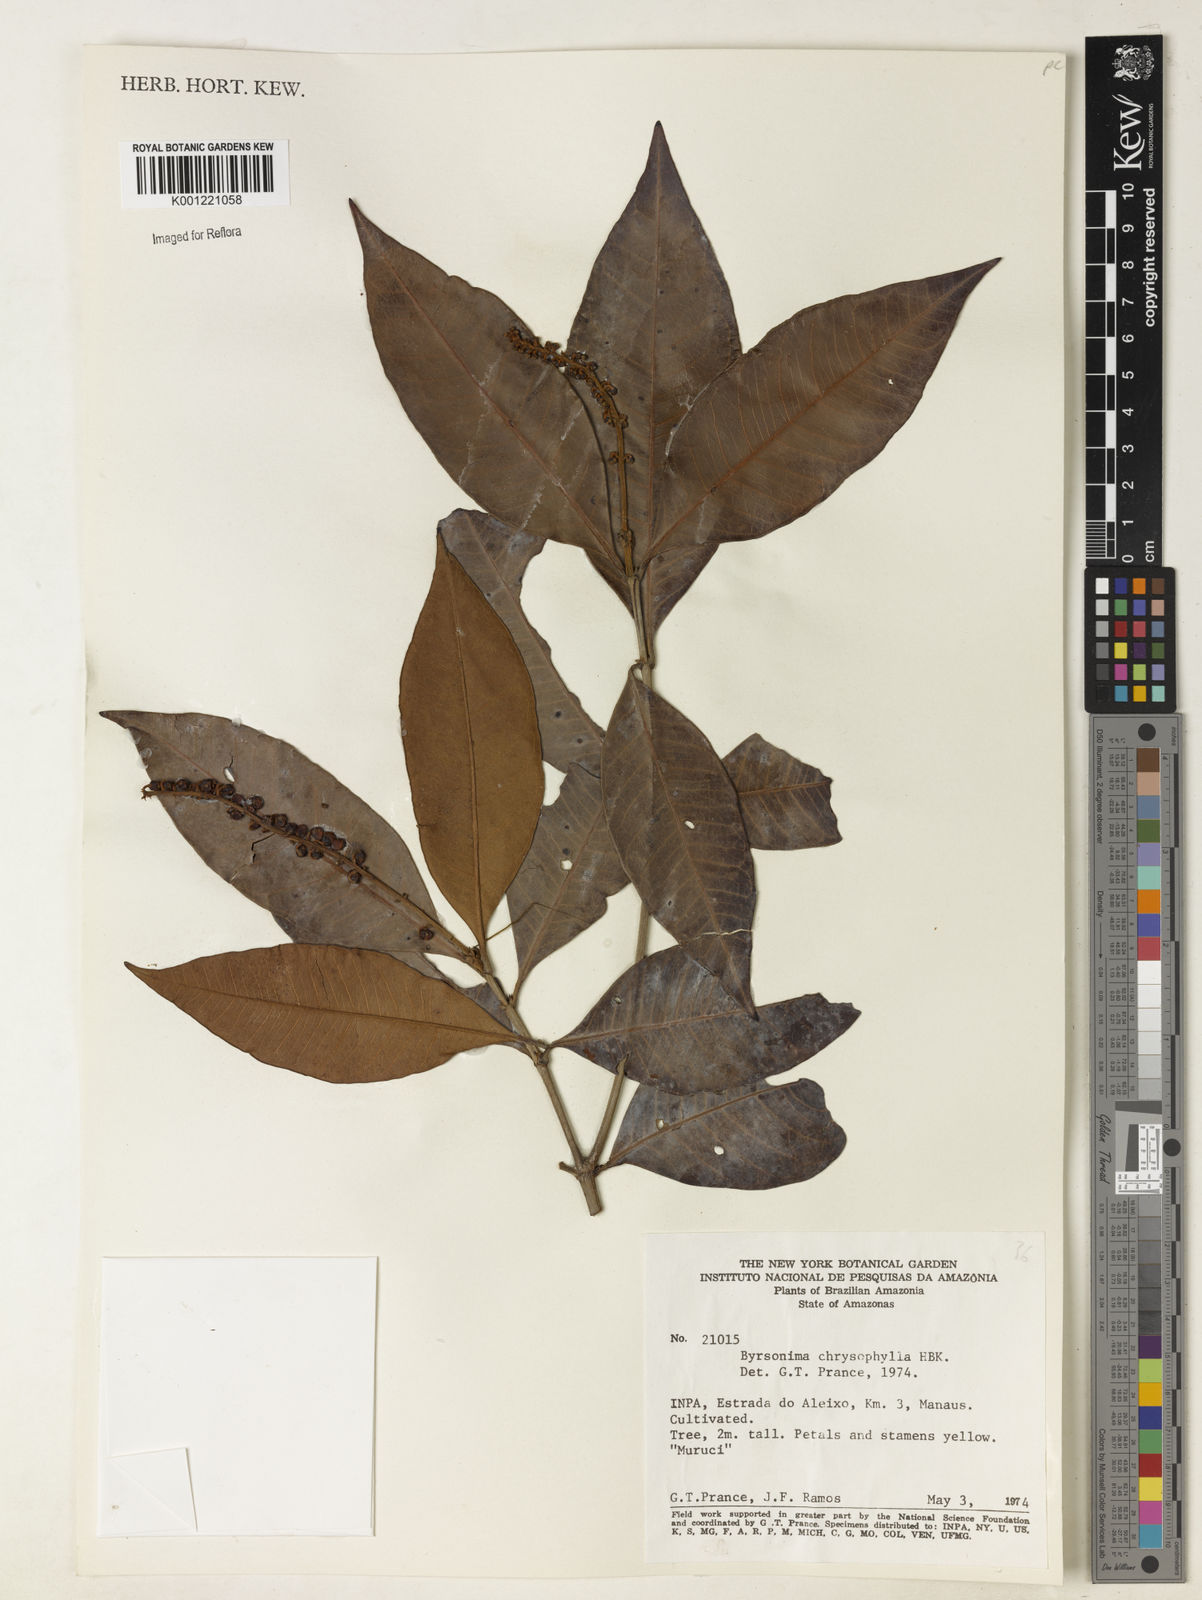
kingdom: Plantae
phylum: Tracheophyta
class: Magnoliopsida
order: Malpighiales
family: Malpighiaceae
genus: Byrsonima
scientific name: Byrsonima chrysophylla
